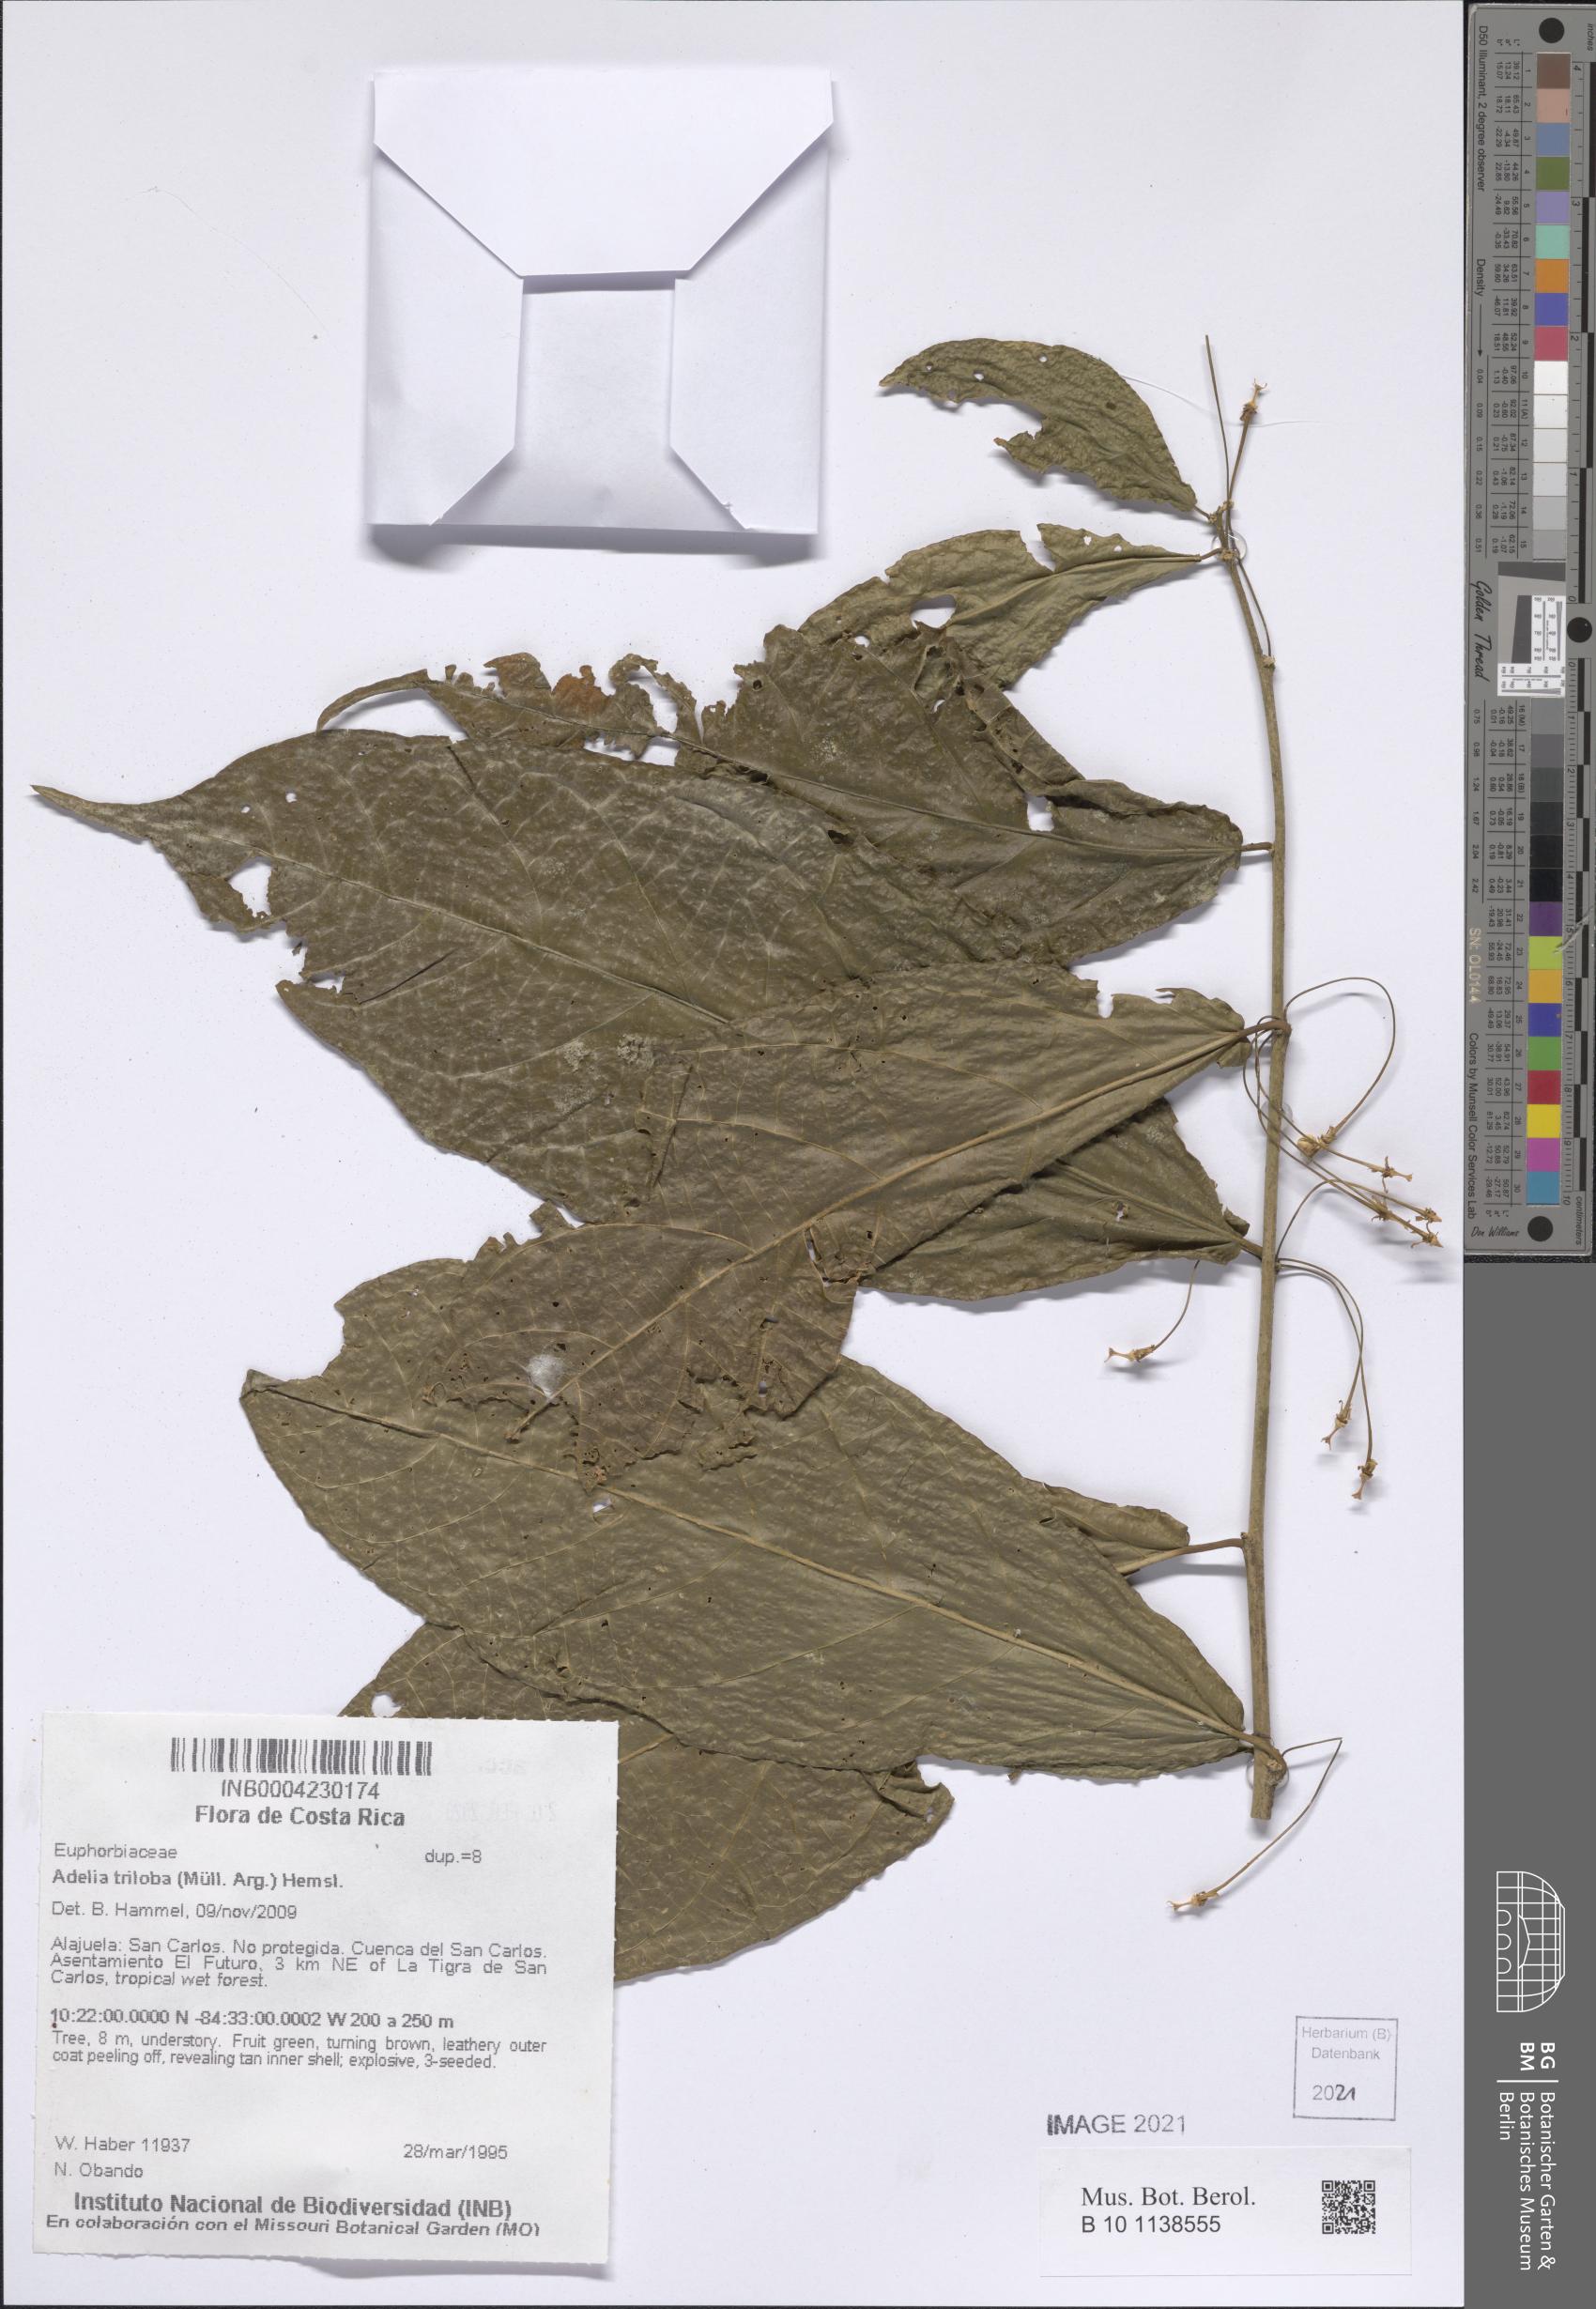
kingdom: Plantae
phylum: Tracheophyta
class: Magnoliopsida
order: Dipsacales
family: Caprifoliaceae
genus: Zabelia
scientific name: Zabelia triflora
